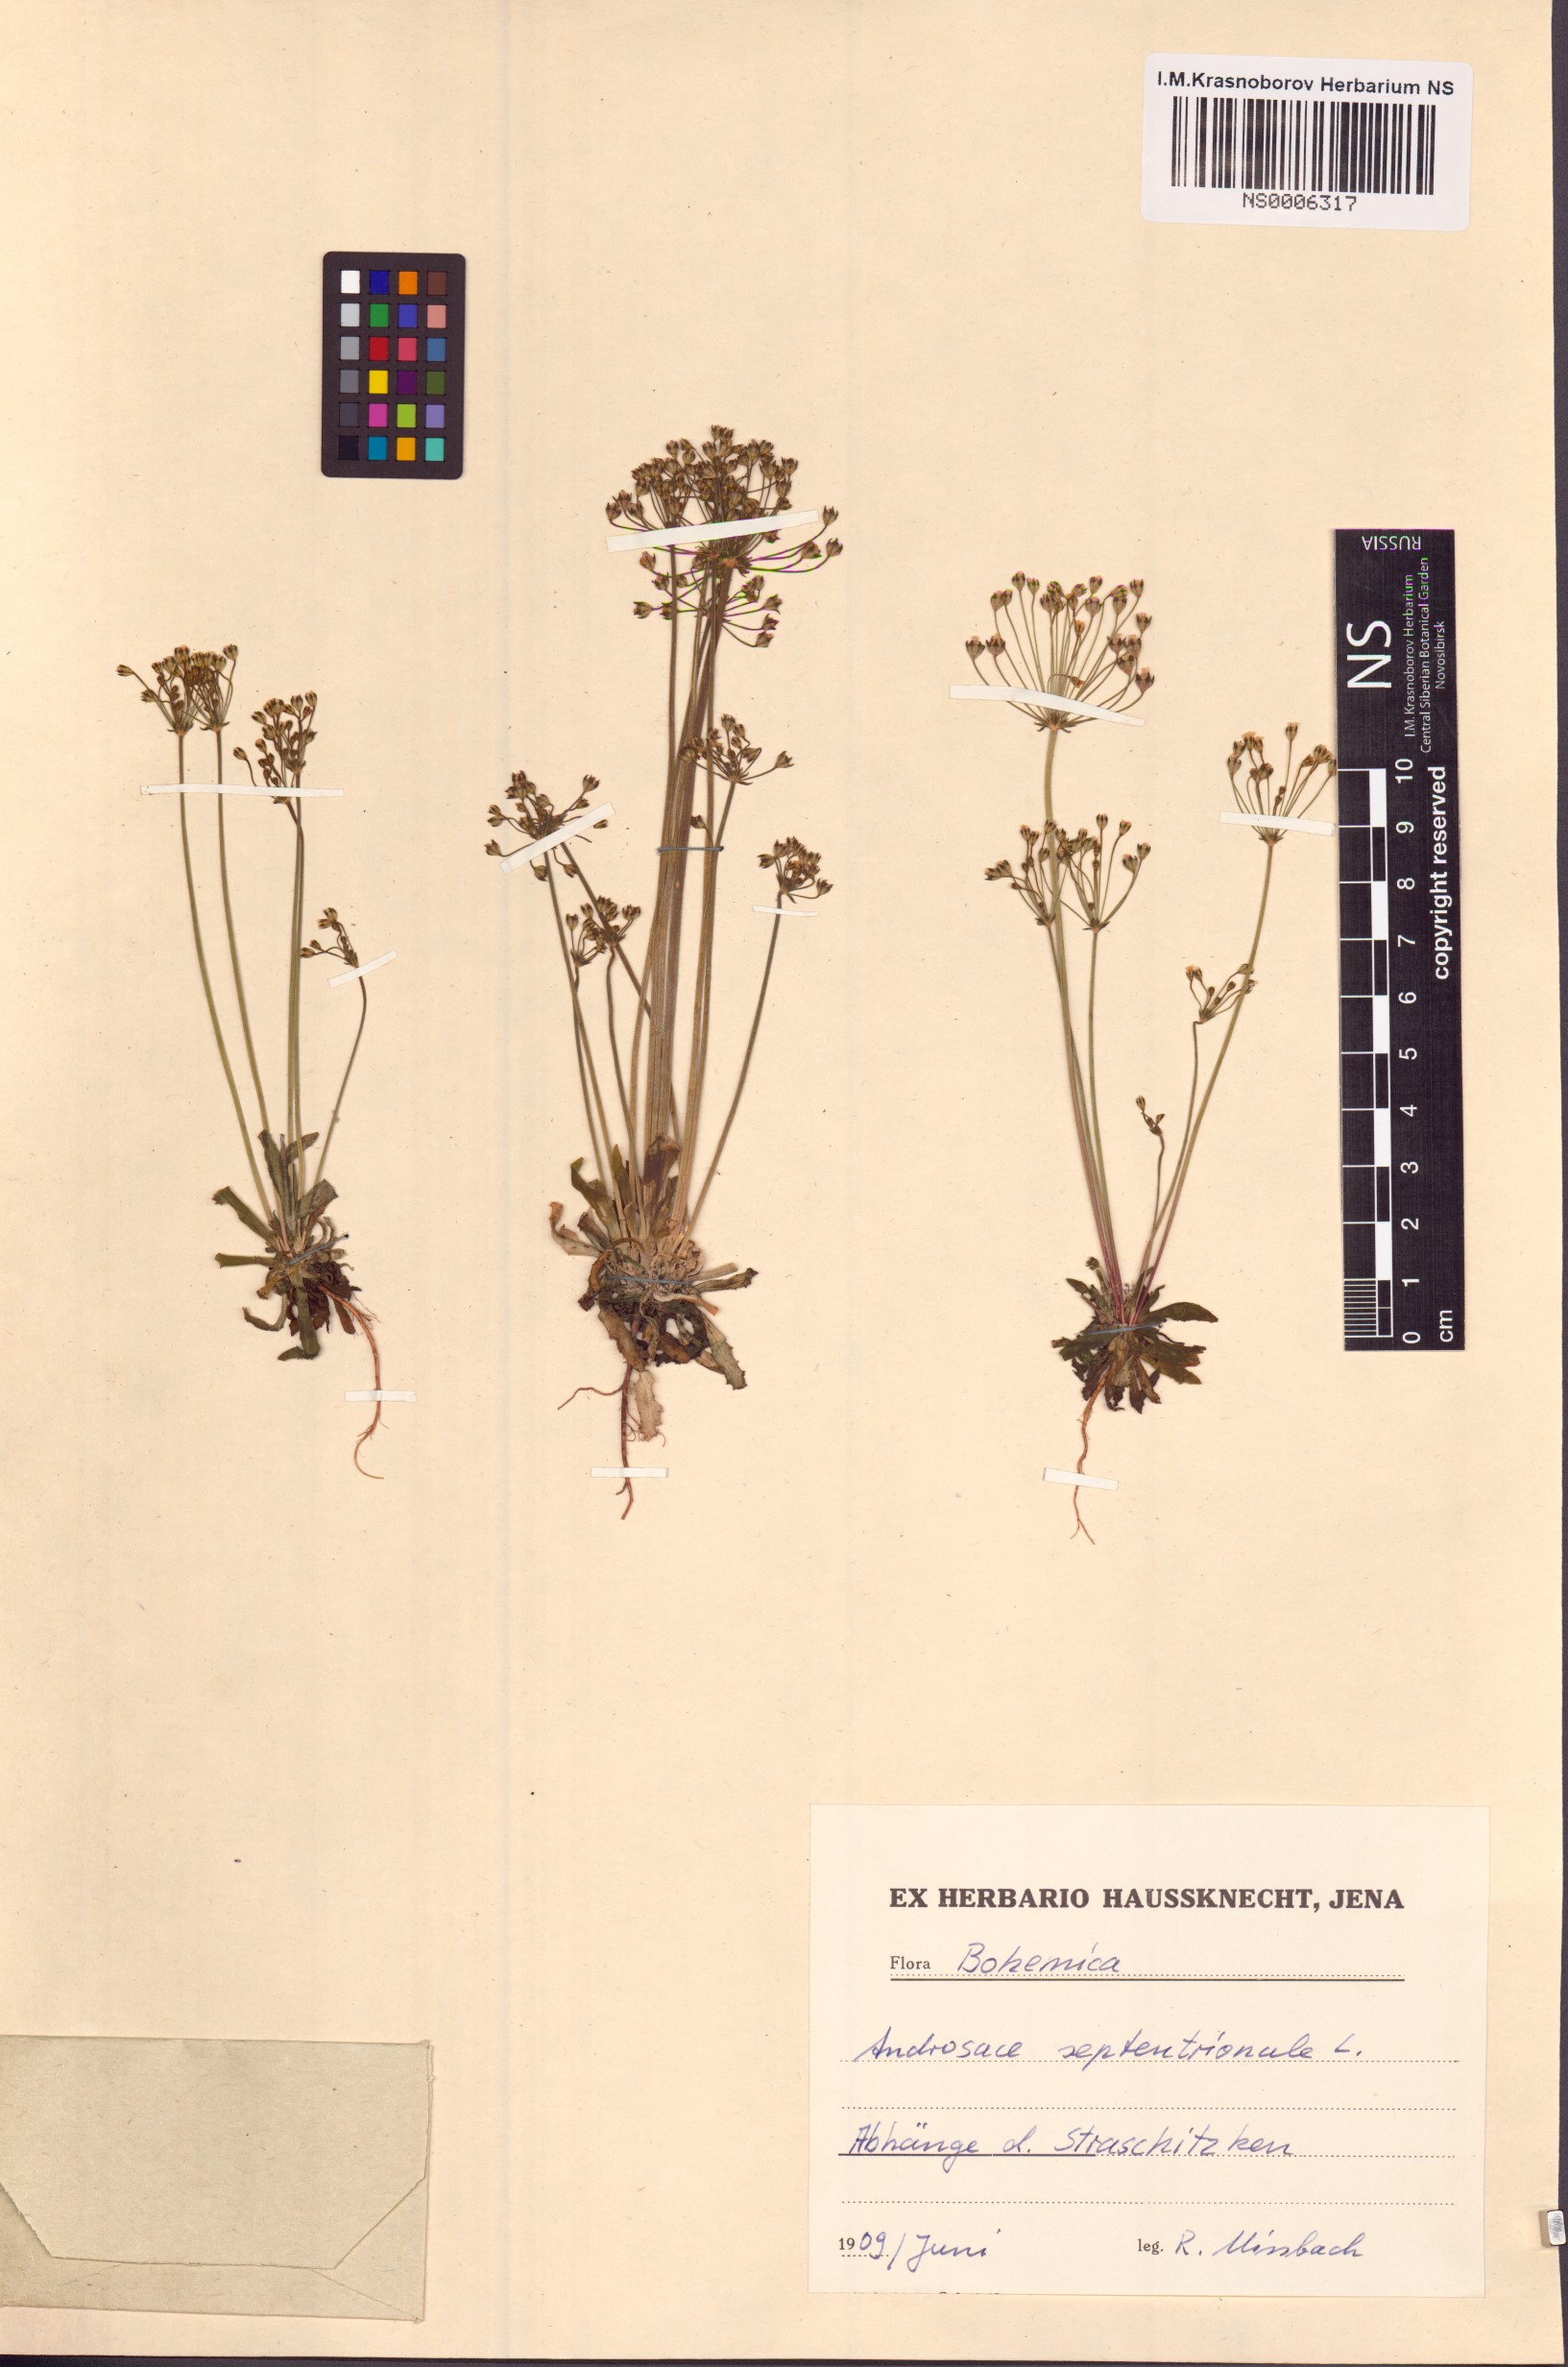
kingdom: Plantae
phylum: Tracheophyta
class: Magnoliopsida
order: Ericales
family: Primulaceae
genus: Androsace
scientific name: Androsace septentrionalis
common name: Hairy northern fairy-candelabra
